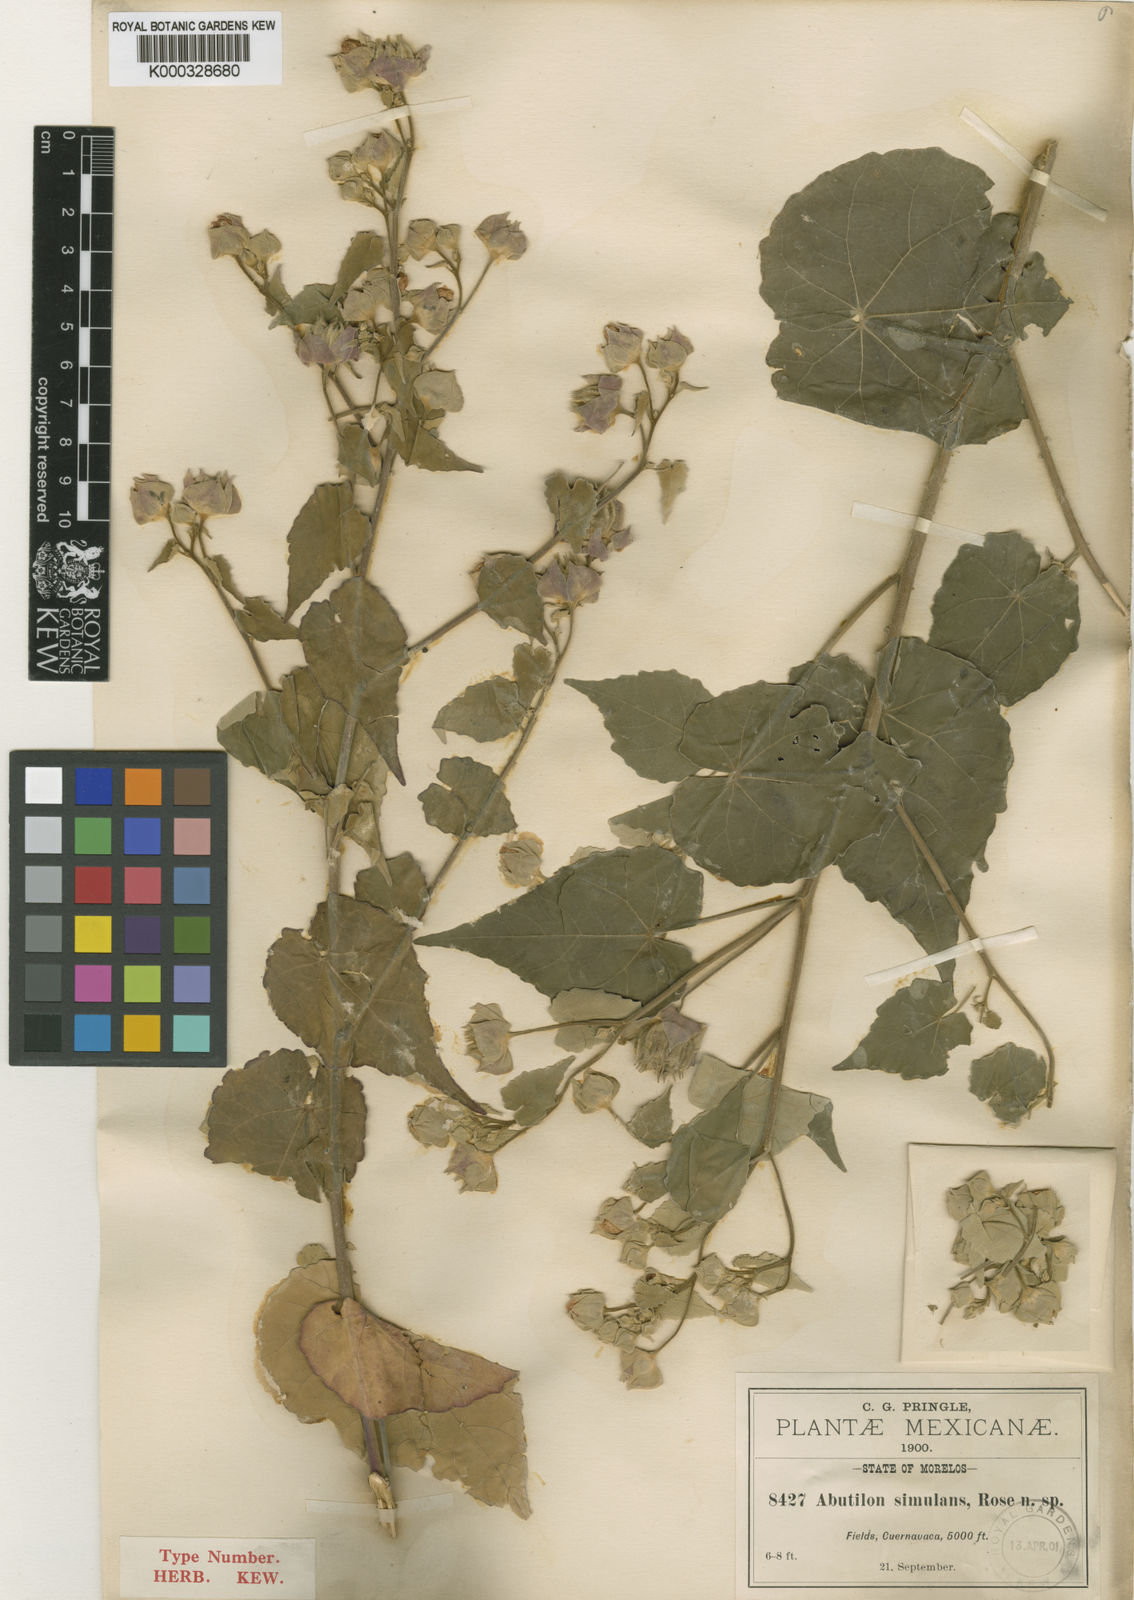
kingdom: Plantae
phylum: Tracheophyta
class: Magnoliopsida
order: Malvales
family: Malvaceae
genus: Abutilon
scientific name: Abutilon simulans
